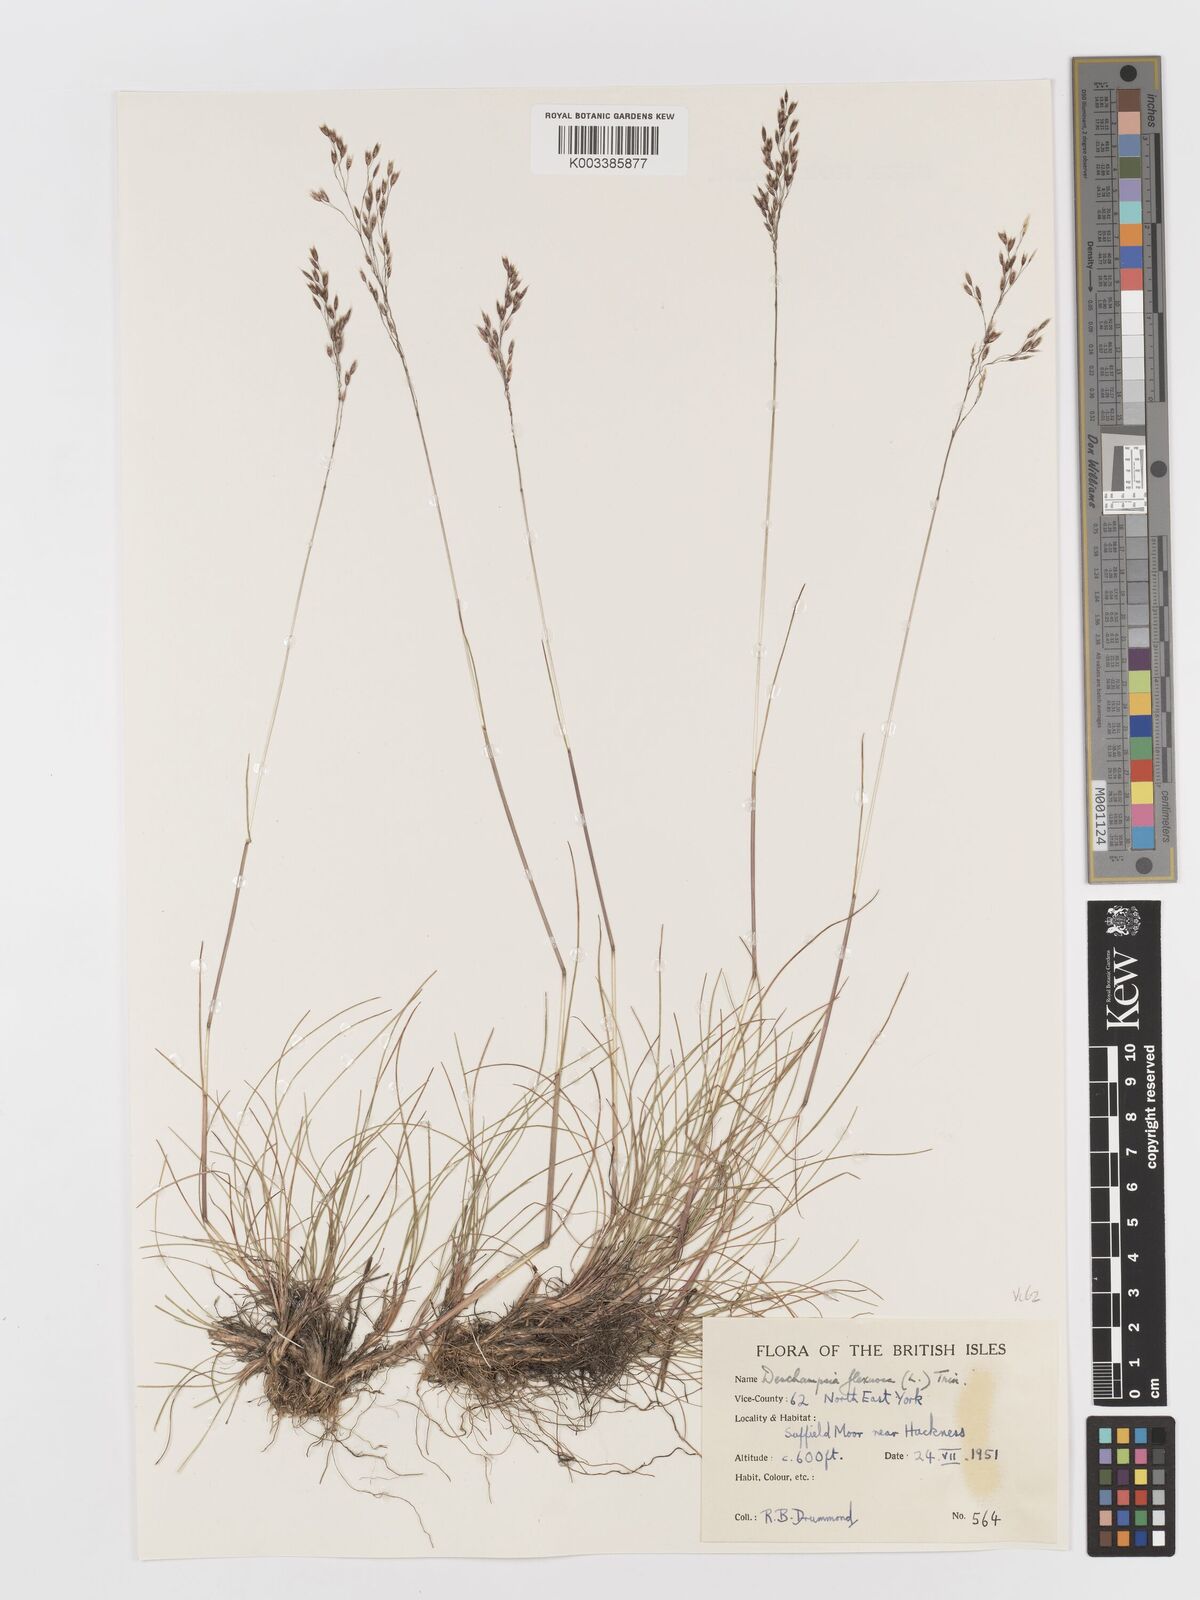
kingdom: Plantae
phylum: Tracheophyta
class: Liliopsida
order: Poales
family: Poaceae
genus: Avenella
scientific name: Avenella flexuosa
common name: Wavy hairgrass
